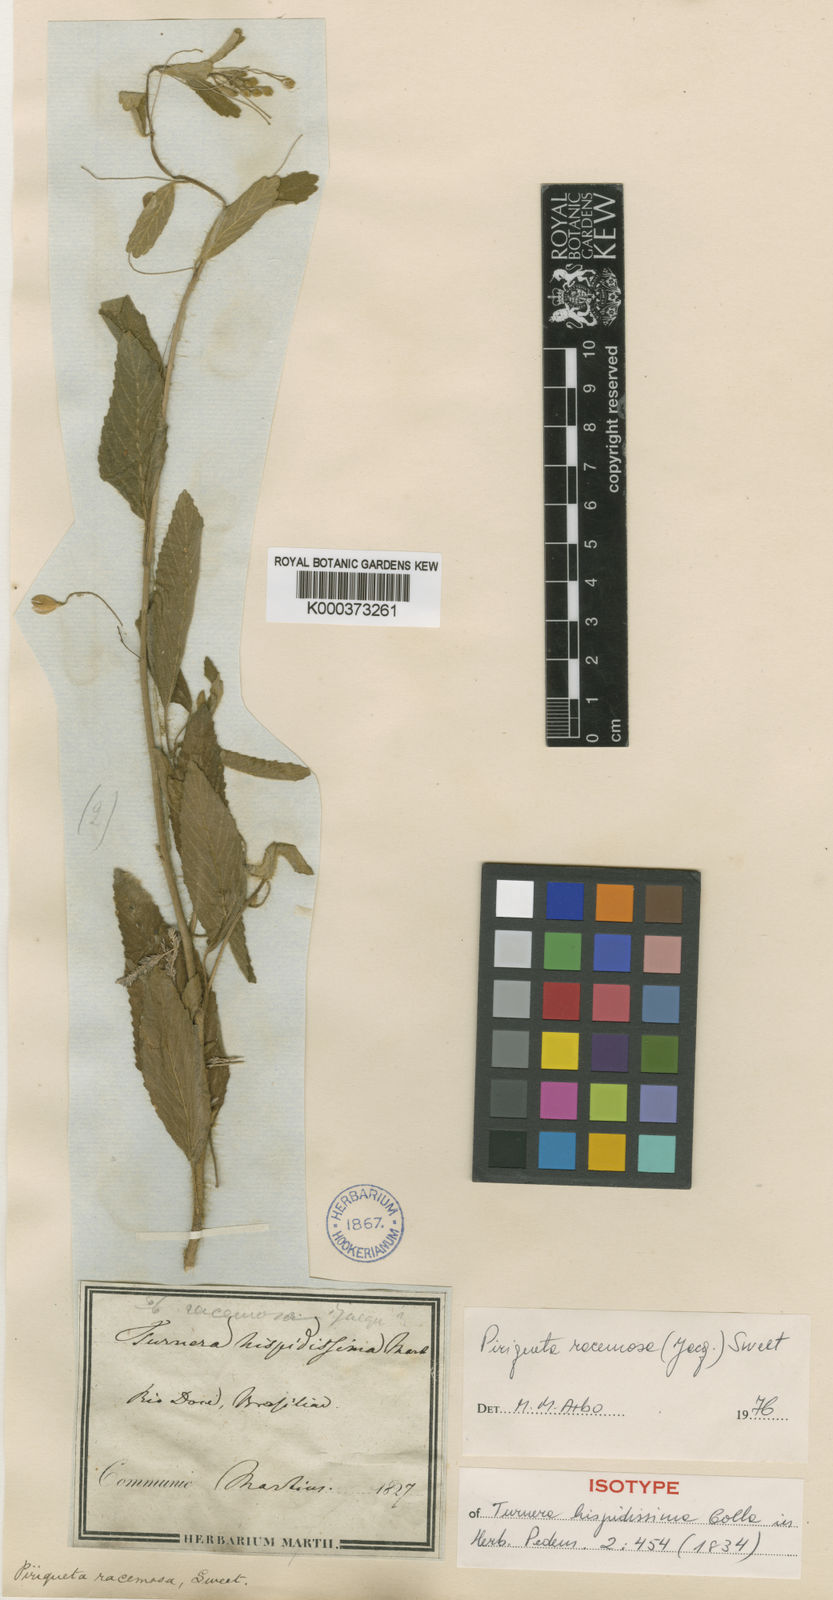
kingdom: Plantae
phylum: Tracheophyta
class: Magnoliopsida
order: Malpighiales
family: Turneraceae
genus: Piriqueta
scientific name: Piriqueta racemosa
